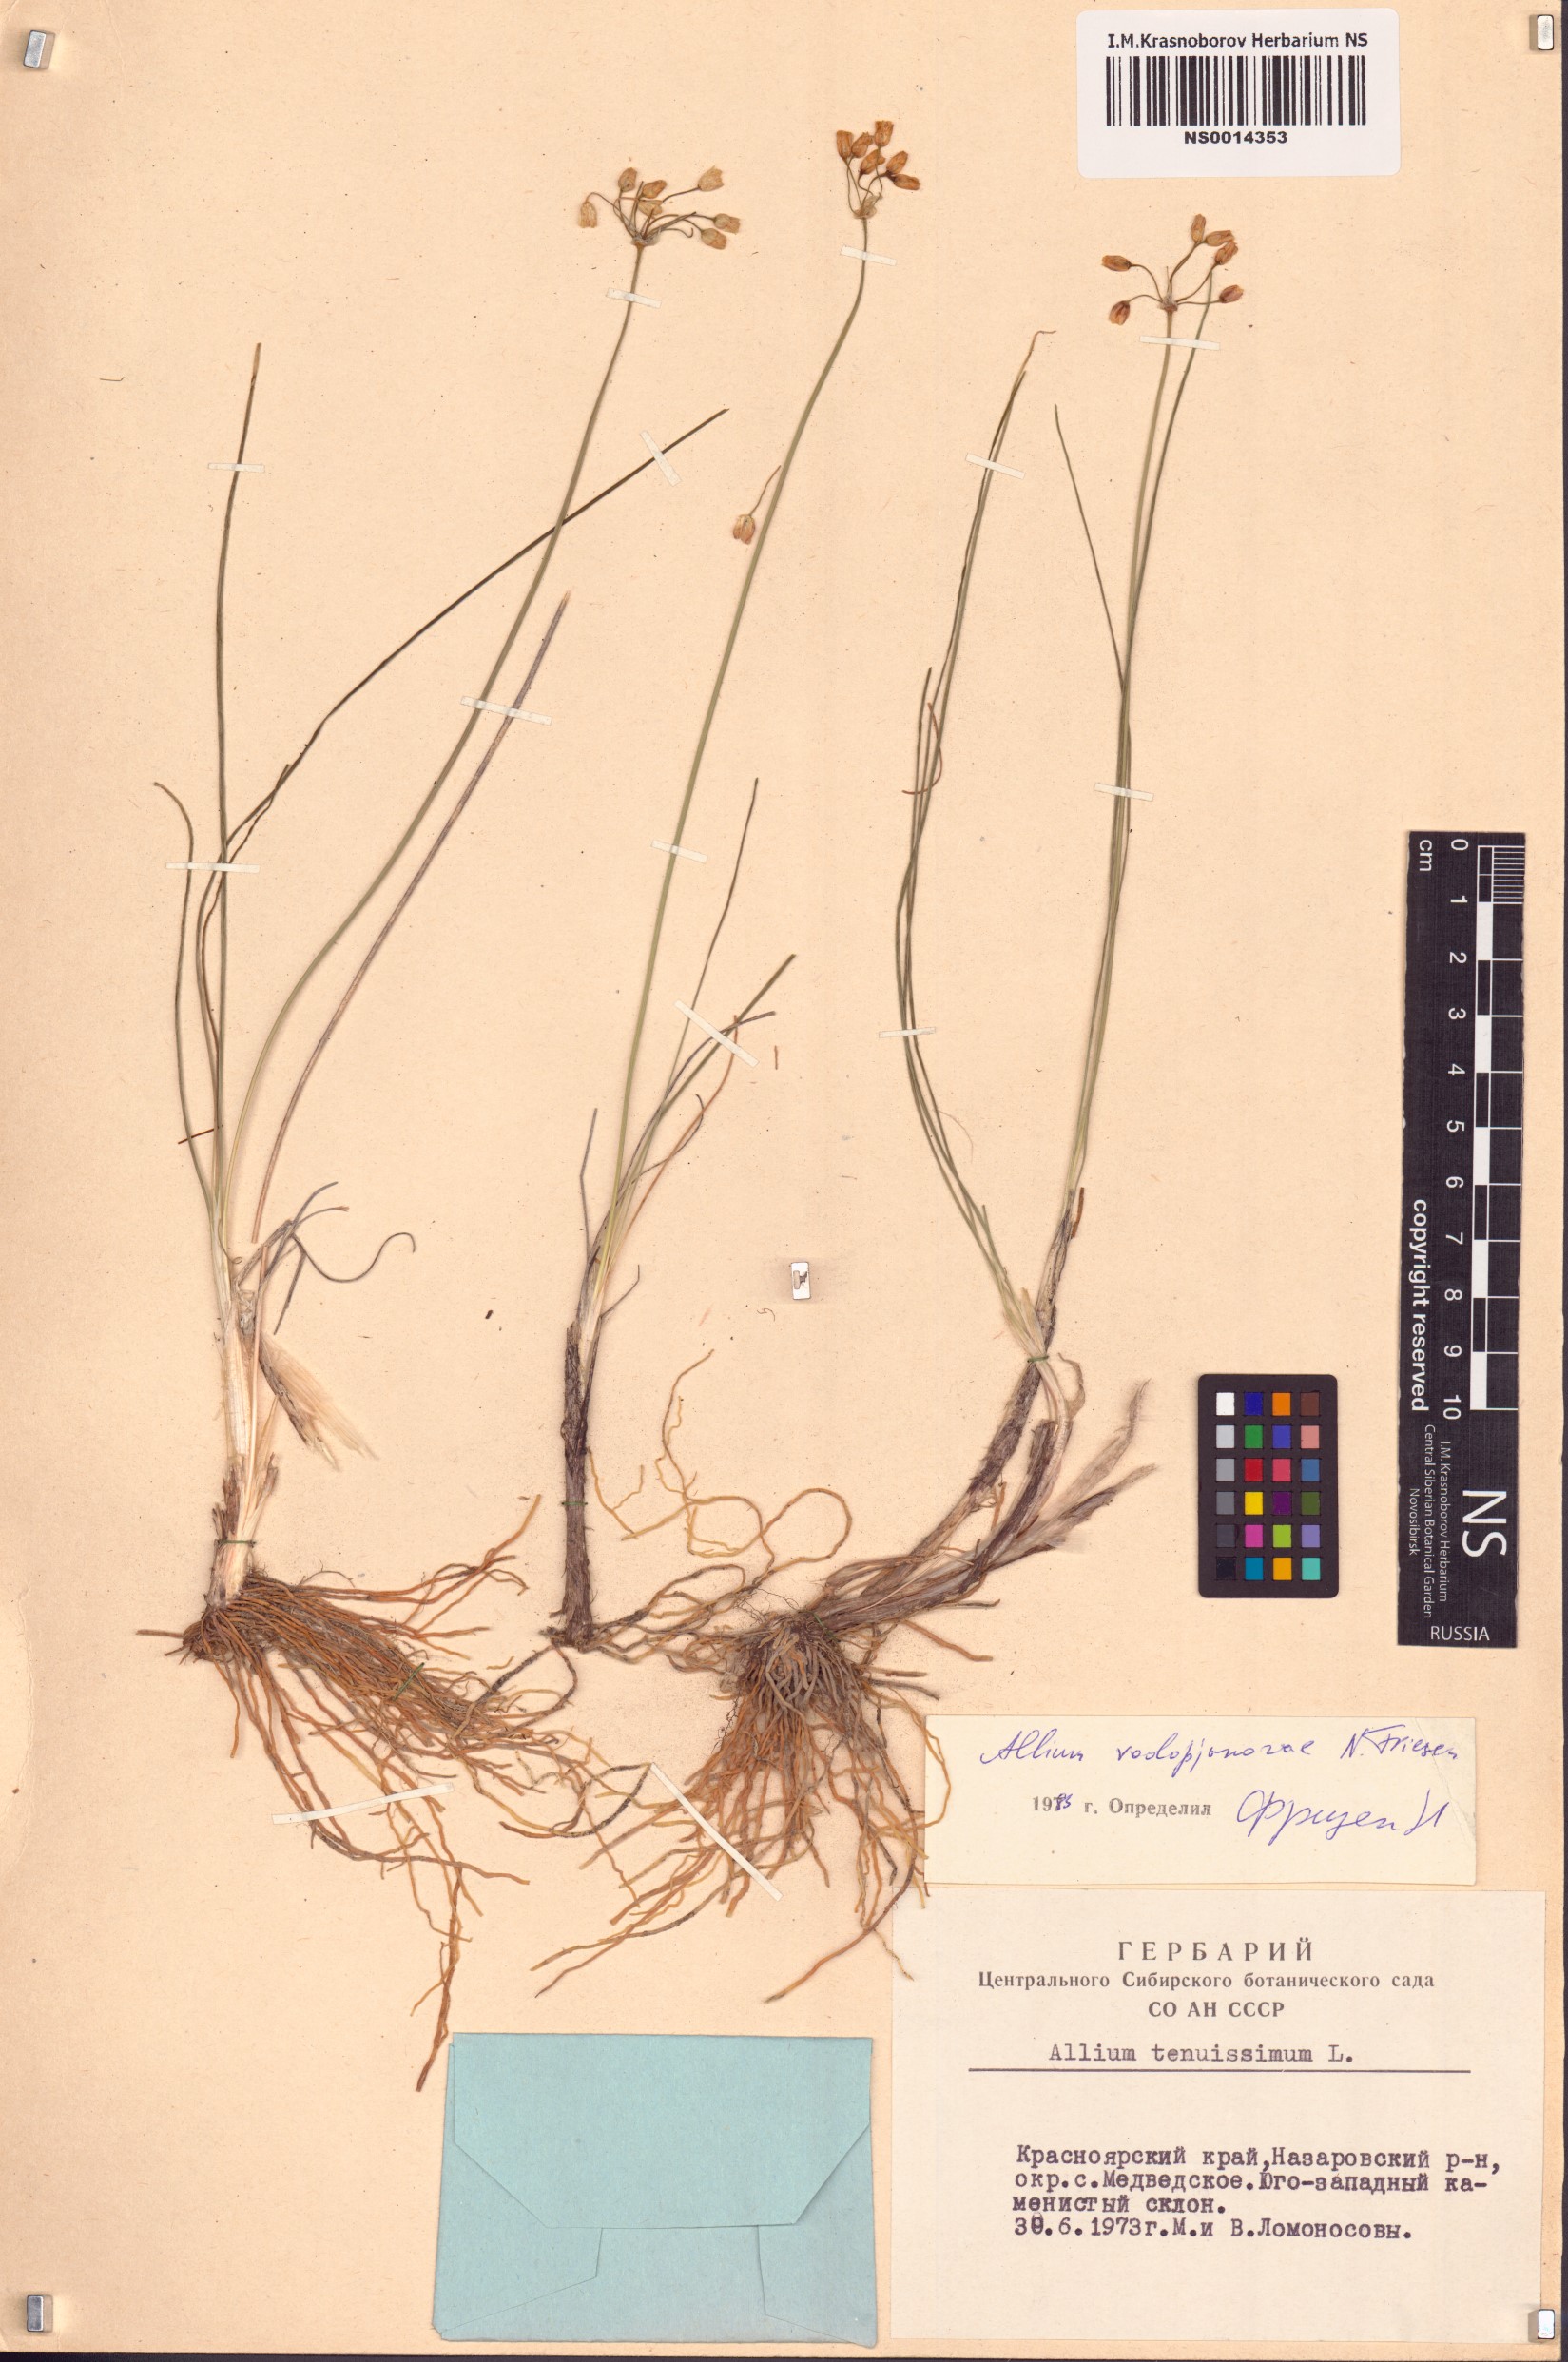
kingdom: Plantae
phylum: Tracheophyta
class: Liliopsida
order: Asparagales
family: Amaryllidaceae
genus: Allium
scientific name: Allium vodopjanovae
